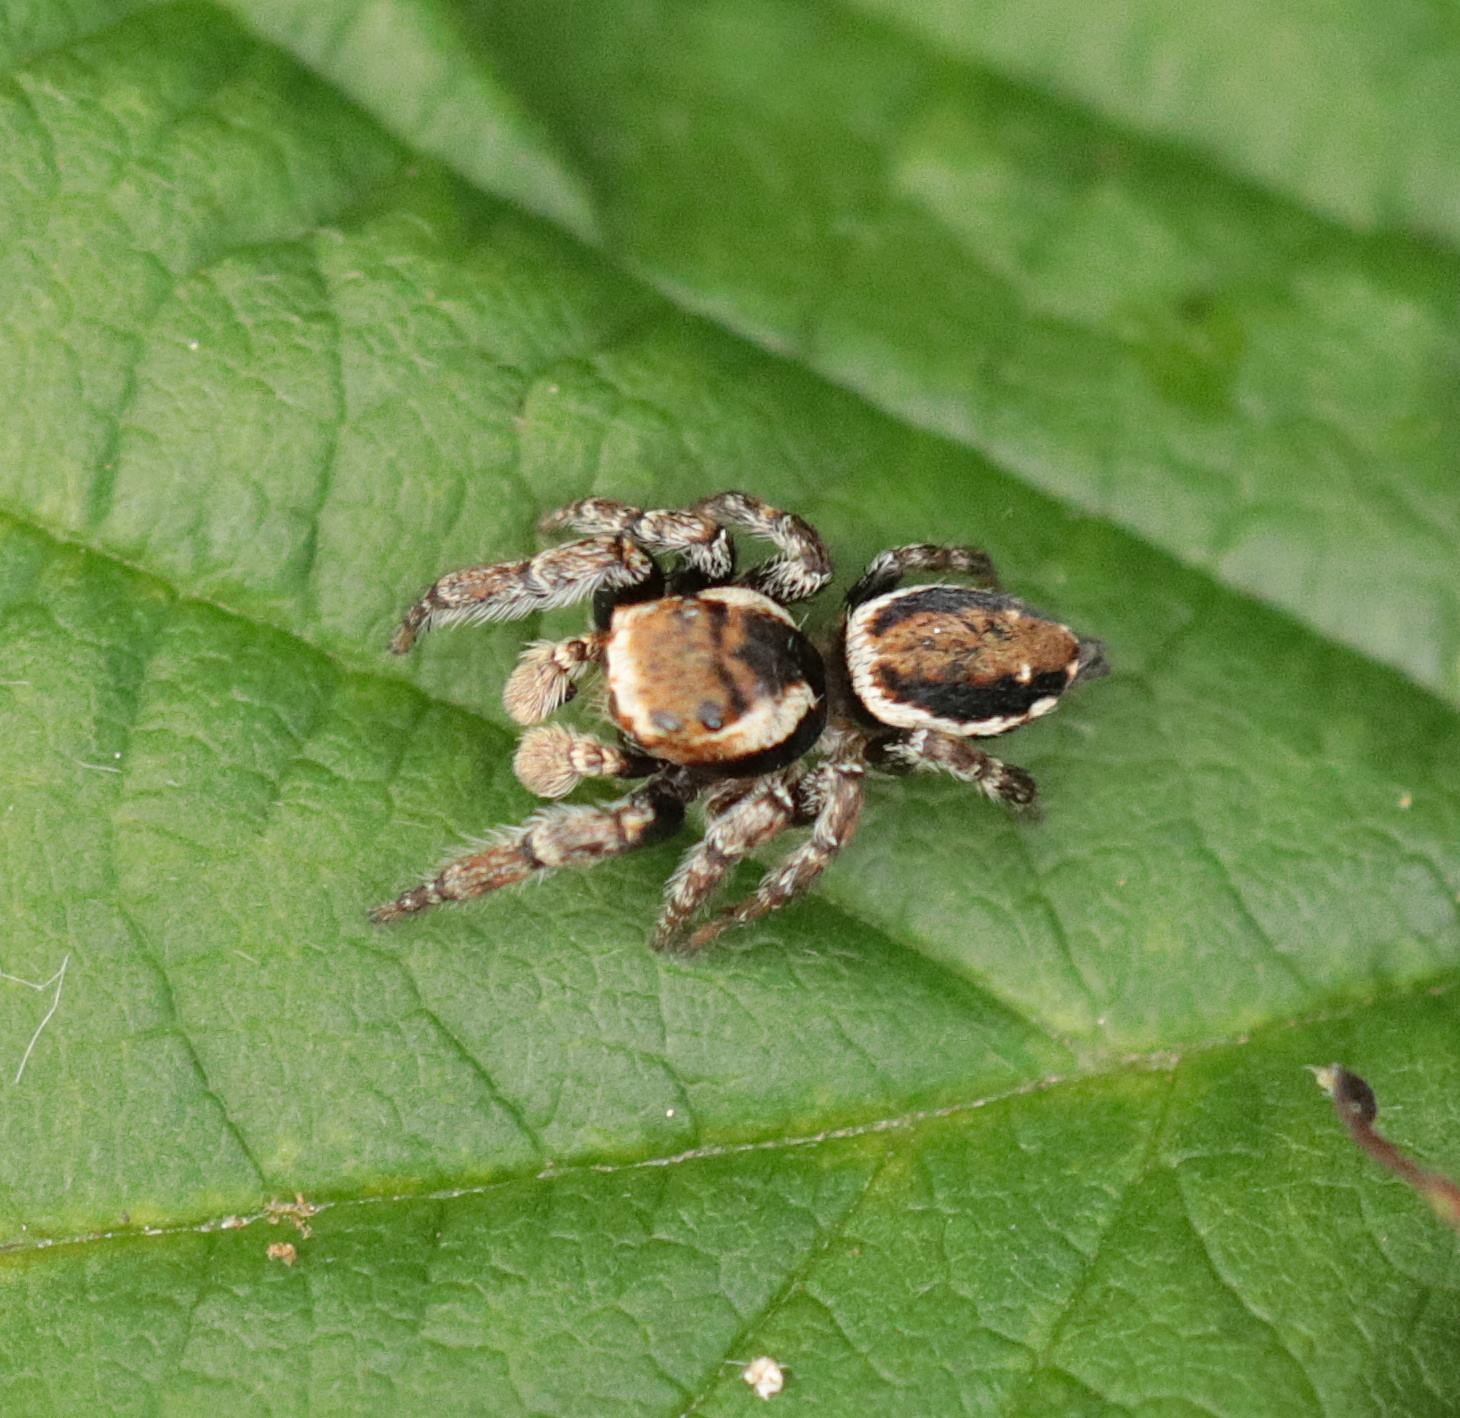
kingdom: Animalia
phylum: Arthropoda
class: Arachnida
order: Araneae
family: Salticidae
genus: Evarcha
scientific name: Evarcha falcata
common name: Broget springedderkop
